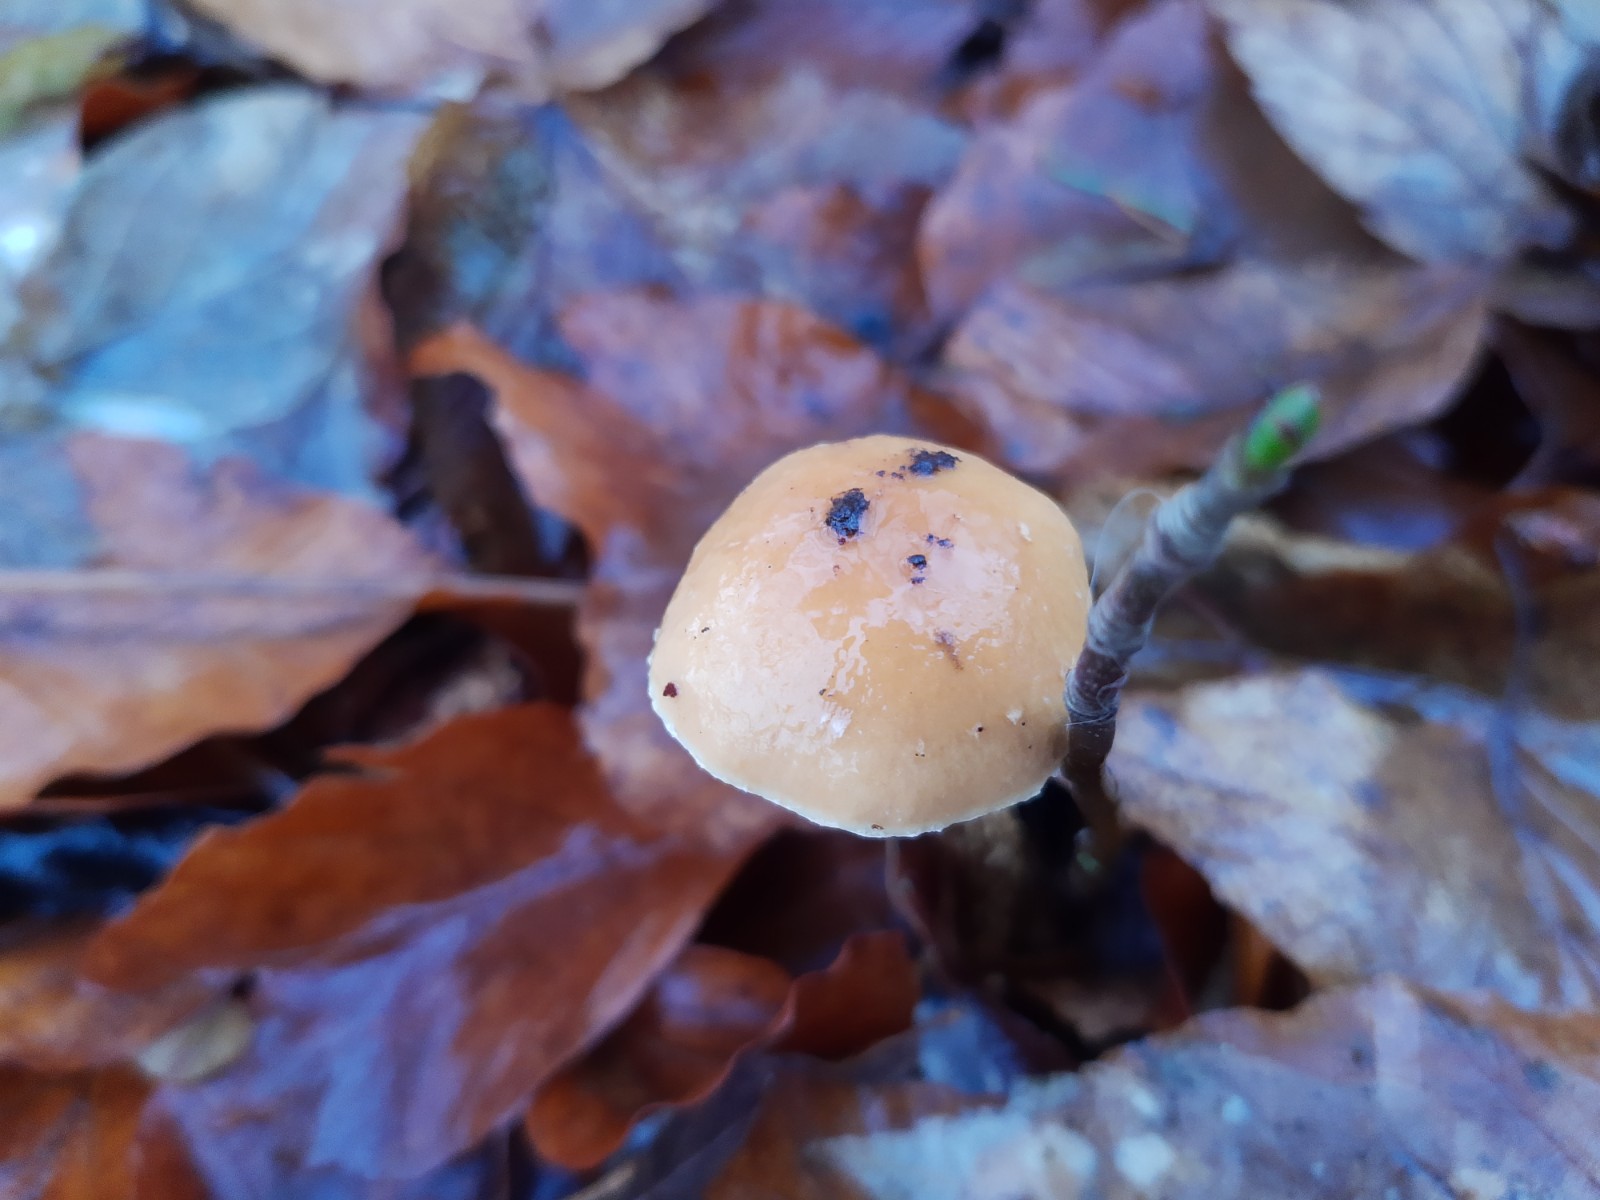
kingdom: Fungi
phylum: Basidiomycota
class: Agaricomycetes
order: Agaricales
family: Strophariaceae
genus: Leratiomyces
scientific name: Leratiomyces squamosus
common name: skællet bredblad
